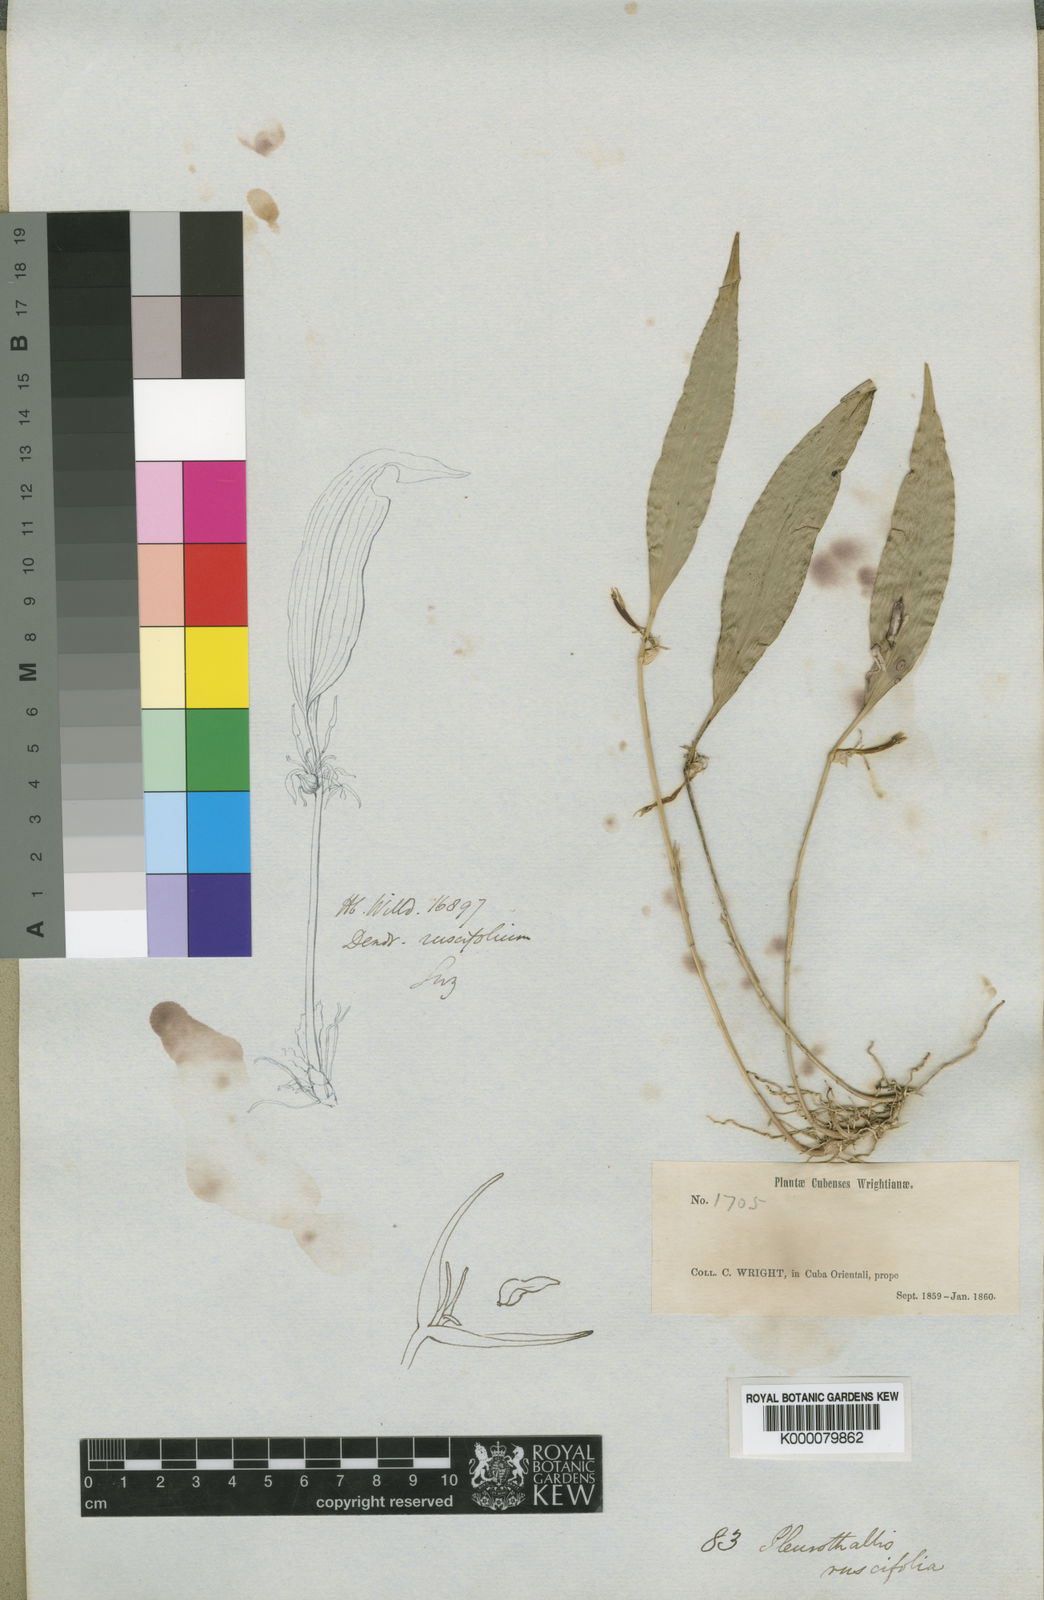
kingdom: Plantae
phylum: Tracheophyta
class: Liliopsida
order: Asparagales
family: Orchidaceae
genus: Pleurothallis
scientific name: Pleurothallis ruscifolia
